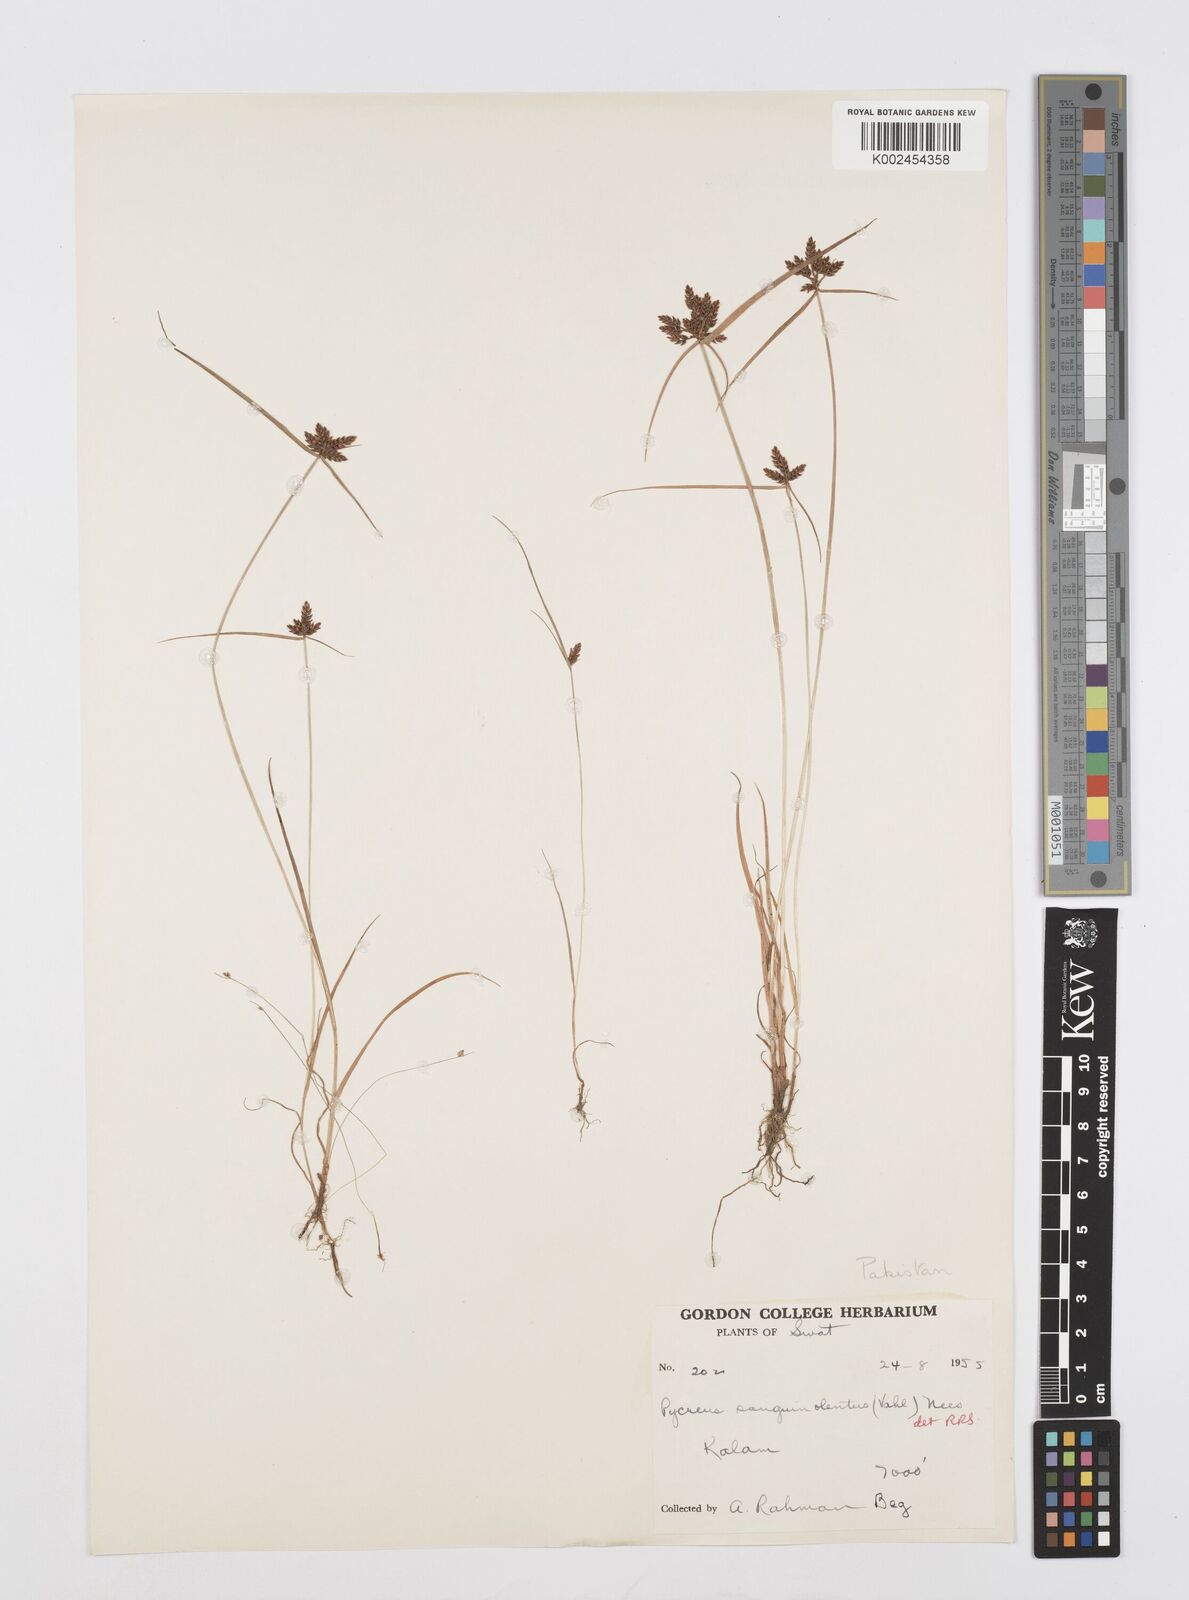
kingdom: Plantae
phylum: Tracheophyta
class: Liliopsida
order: Poales
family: Cyperaceae
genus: Cyperus
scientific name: Cyperus sanguinolentus
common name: Purpleglume flatsedge
